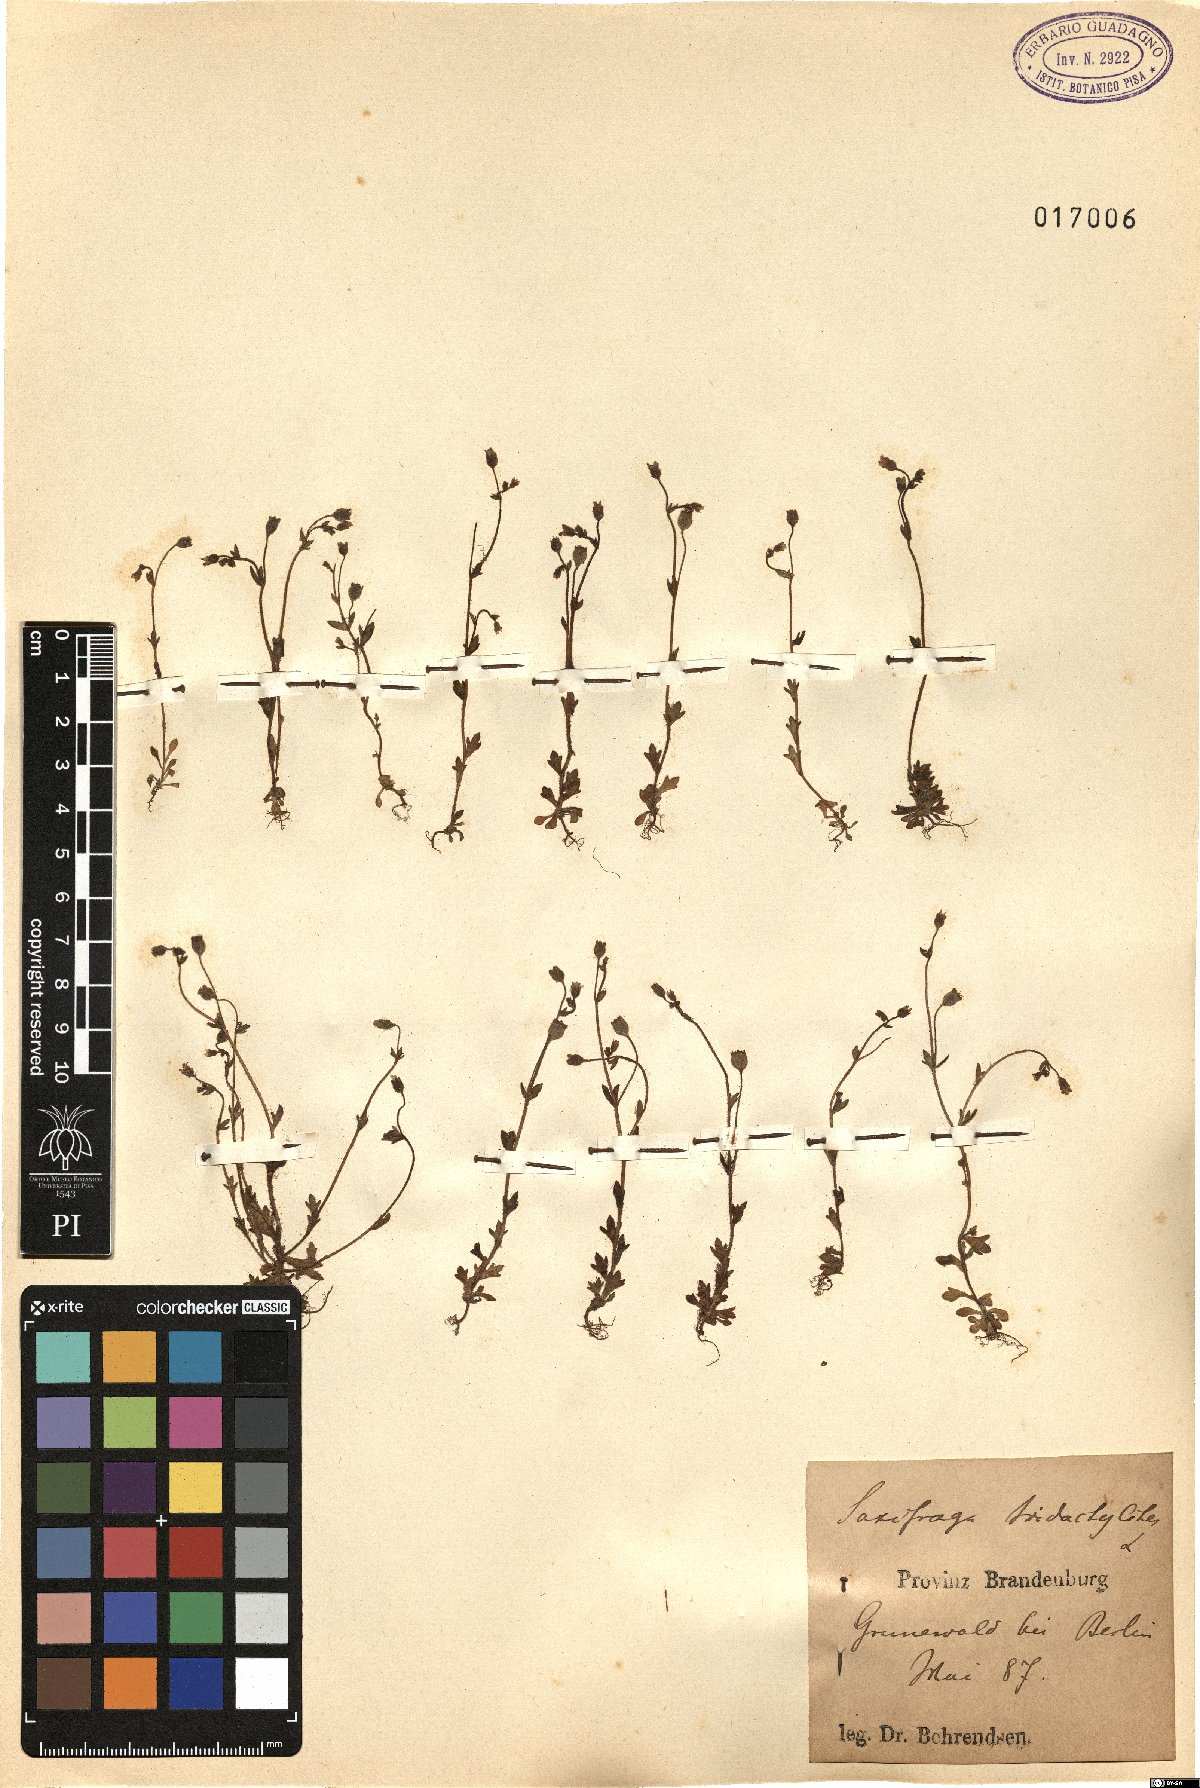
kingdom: Plantae
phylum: Tracheophyta
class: Magnoliopsida
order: Saxifragales
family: Saxifragaceae
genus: Saxifraga
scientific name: Saxifraga tridactylites
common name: Rue-leaved saxifrage
